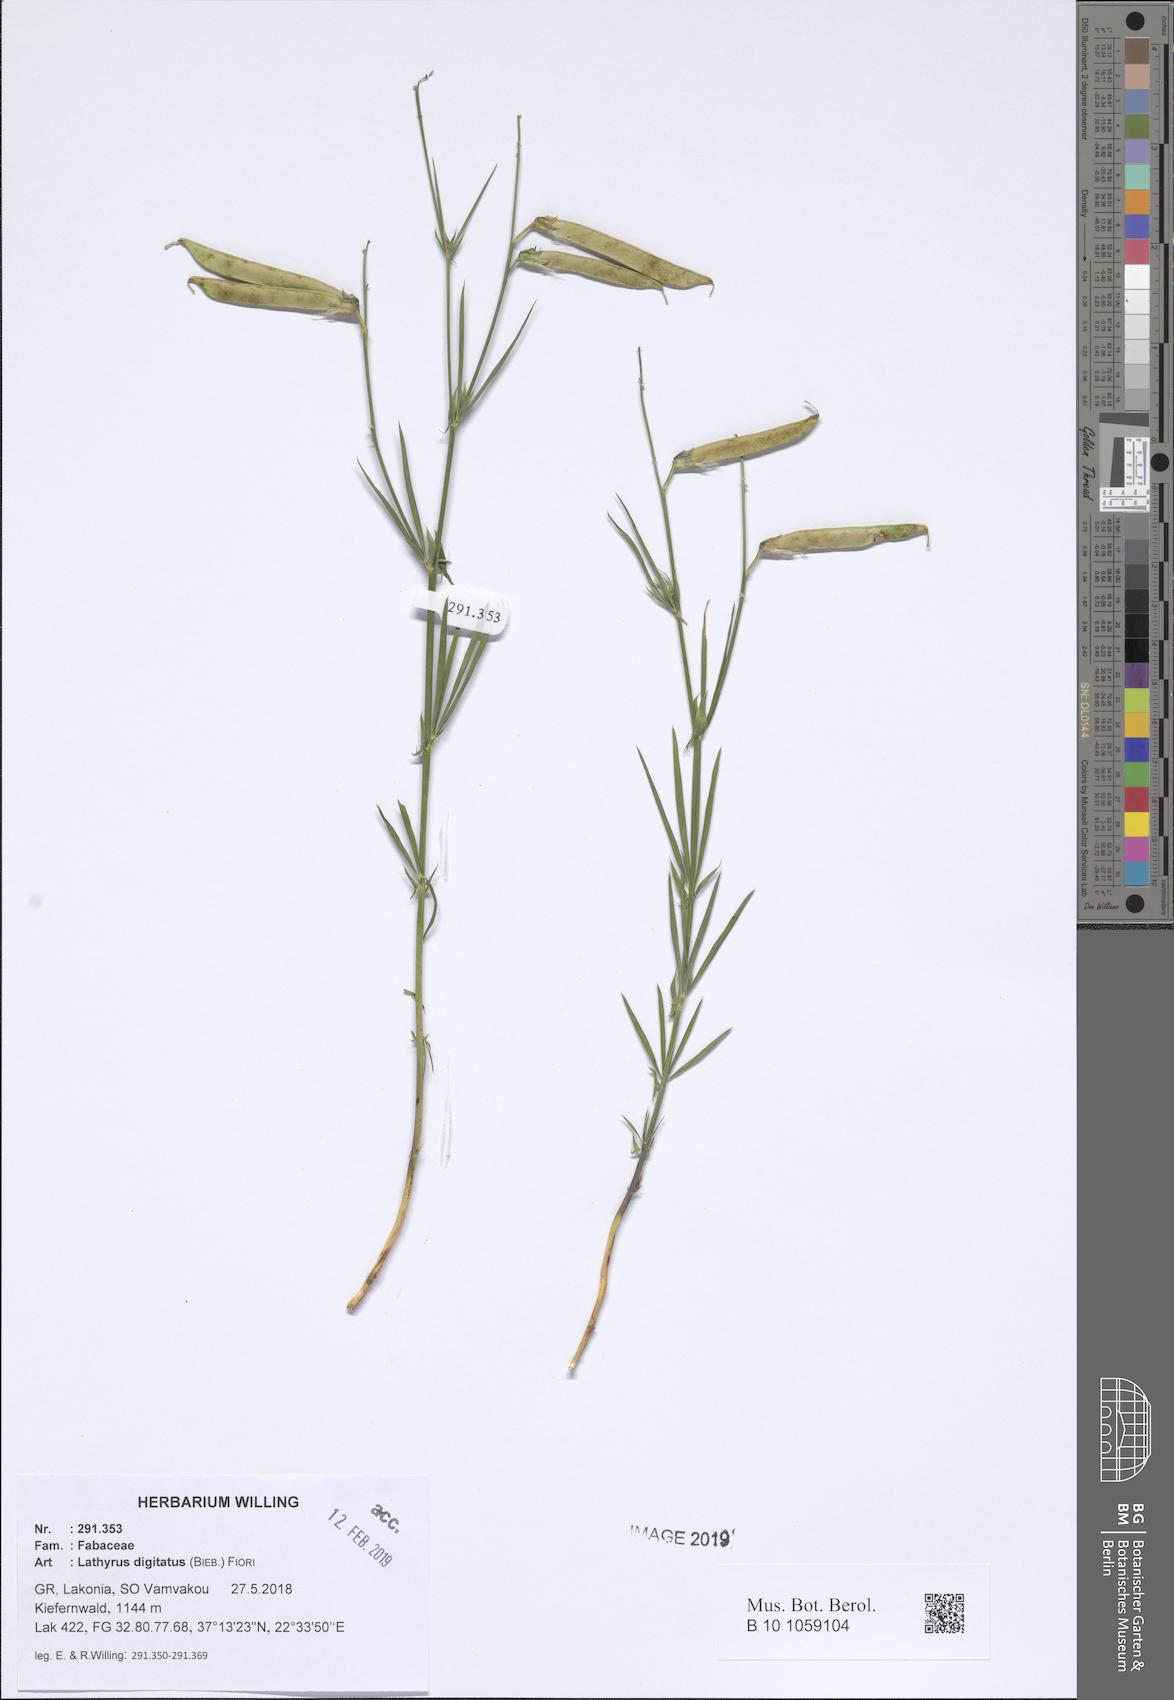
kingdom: Plantae
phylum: Tracheophyta
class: Magnoliopsida
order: Fabales
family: Fabaceae
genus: Lathyrus
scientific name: Lathyrus digitatus
